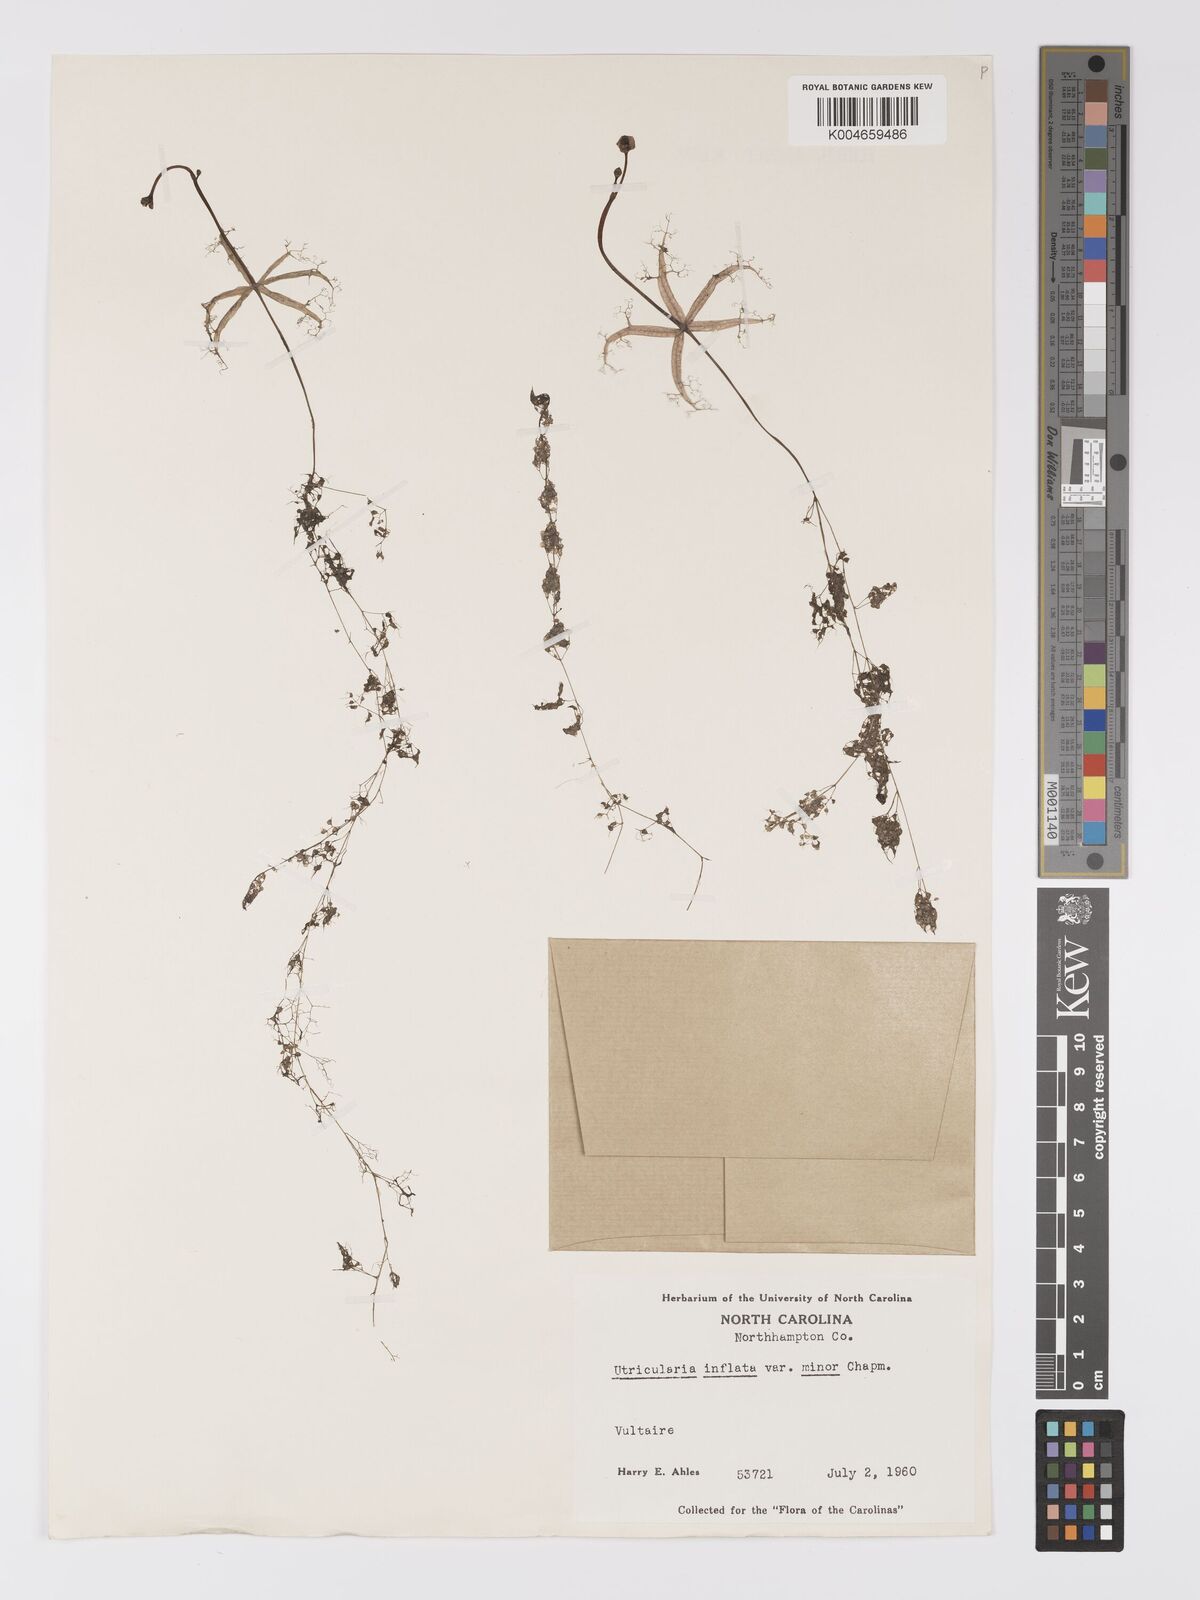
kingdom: Plantae
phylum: Tracheophyta
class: Magnoliopsida
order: Lamiales
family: Lentibulariaceae
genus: Utricularia
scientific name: Utricularia radiata
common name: Floating bladderwort
